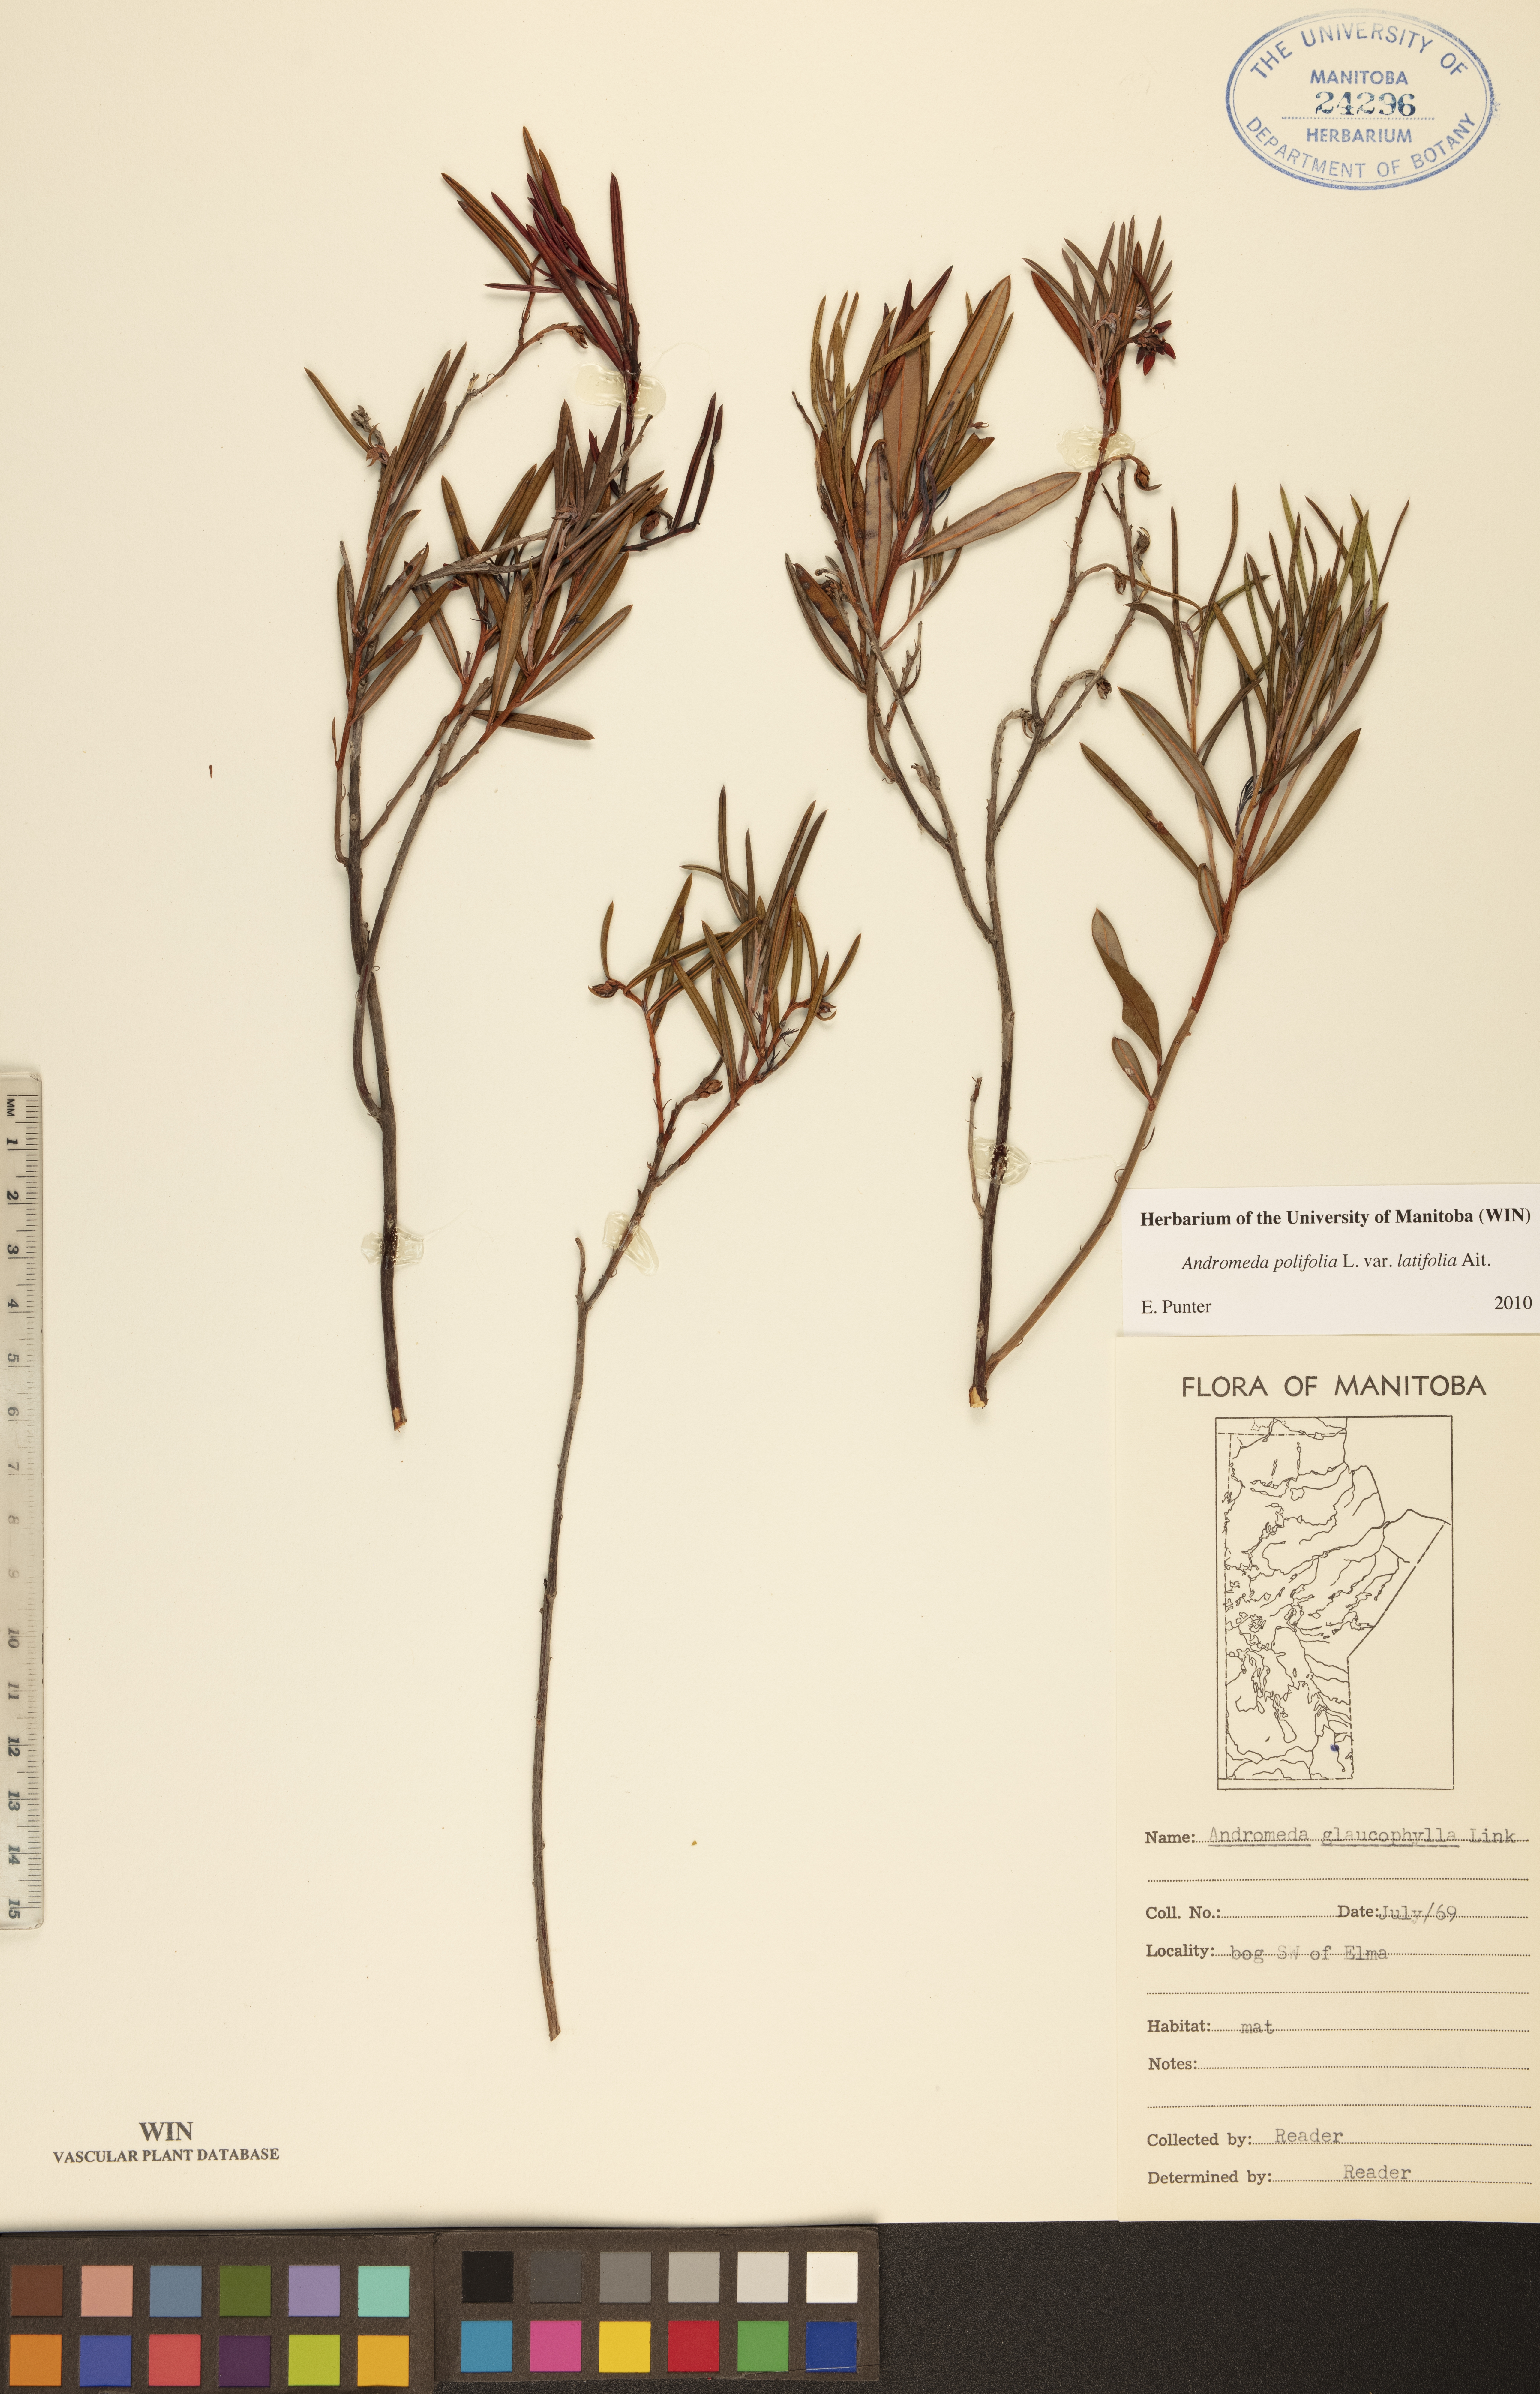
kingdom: Plantae
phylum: Tracheophyta
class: Magnoliopsida
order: Ericales
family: Ericaceae
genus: Andromeda
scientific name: Andromeda polifolia
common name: Bog-rosemary
